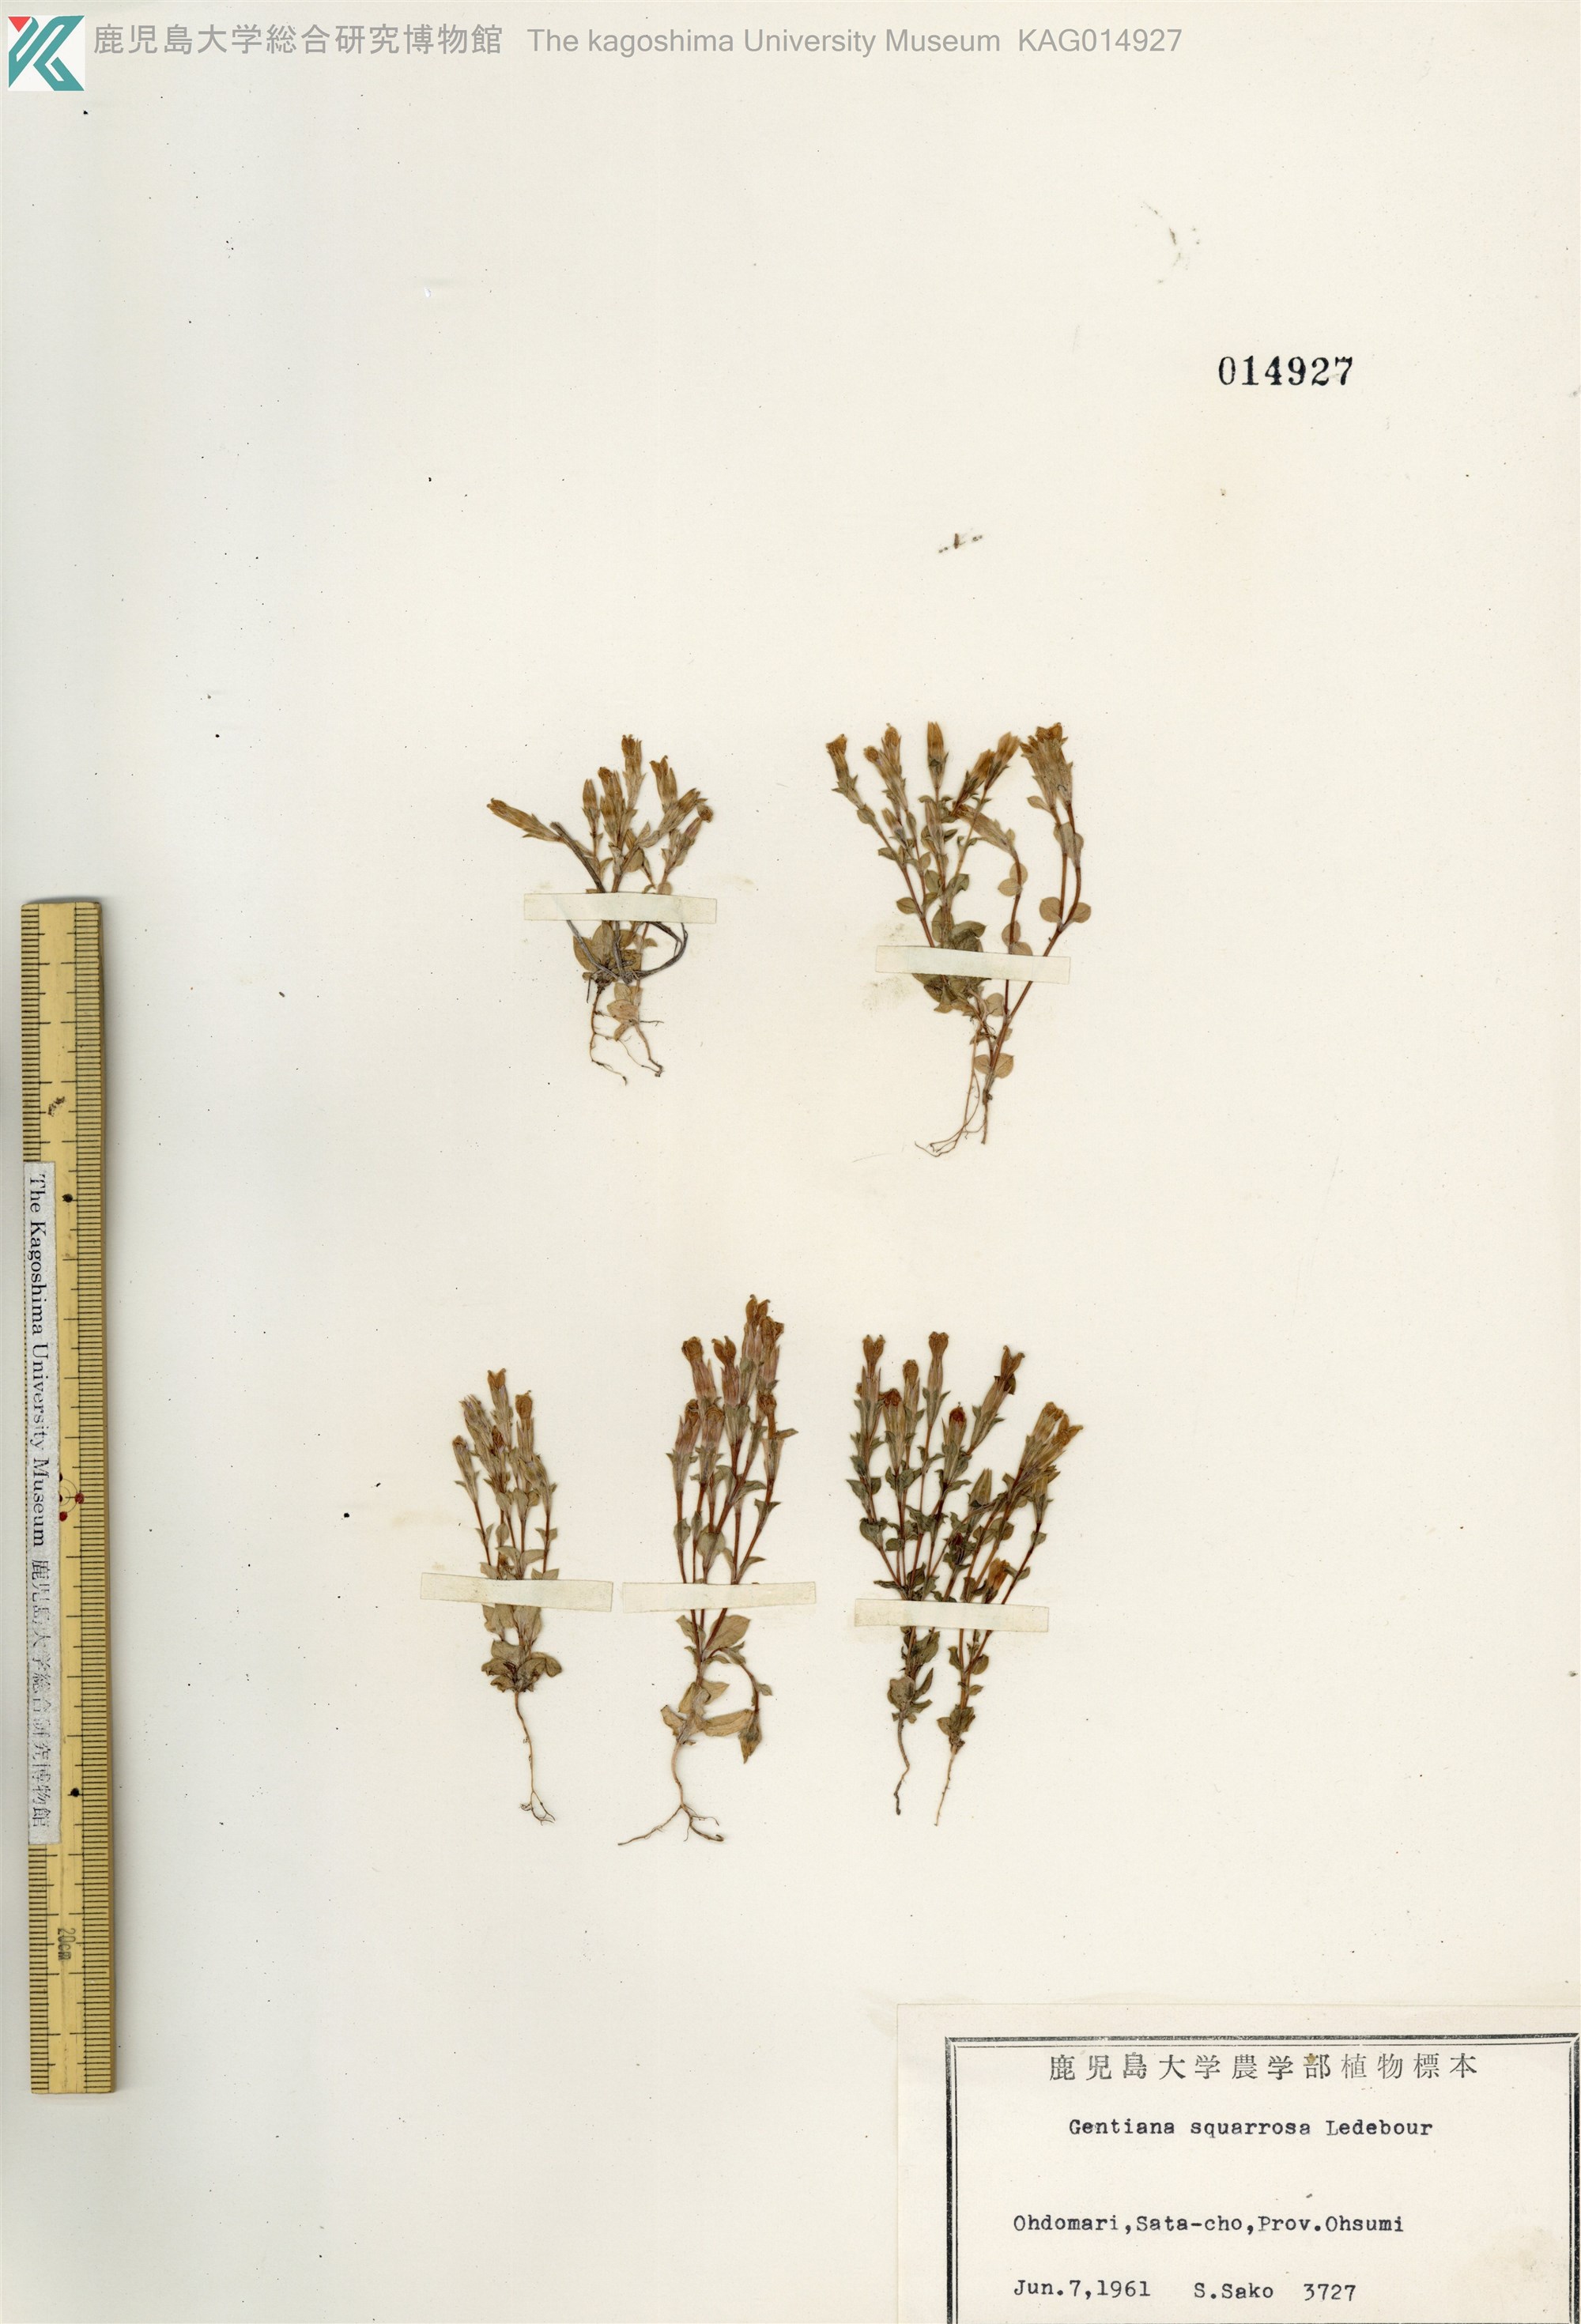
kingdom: Plantae
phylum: Tracheophyta
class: Magnoliopsida
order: Gentianales
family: Gentianaceae
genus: Gentiana
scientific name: Gentiana squarrosa
